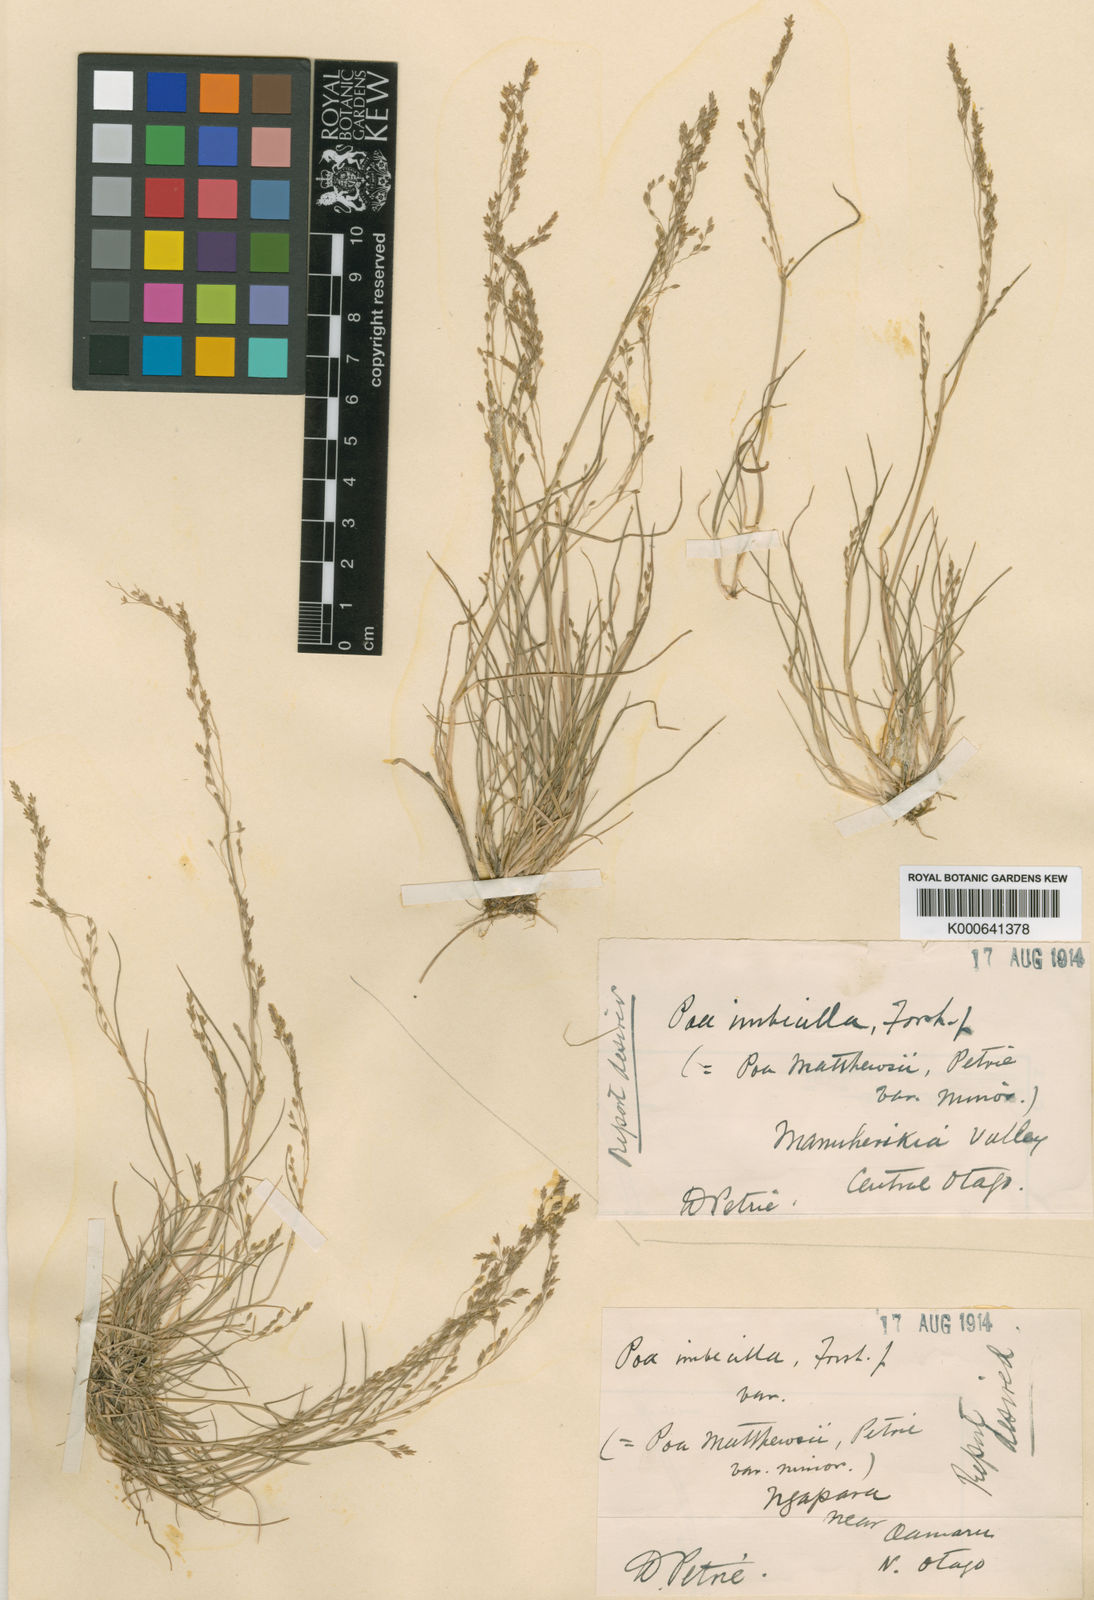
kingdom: Plantae
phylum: Tracheophyta
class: Liliopsida
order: Poales
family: Poaceae
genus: Poa
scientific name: Poa
